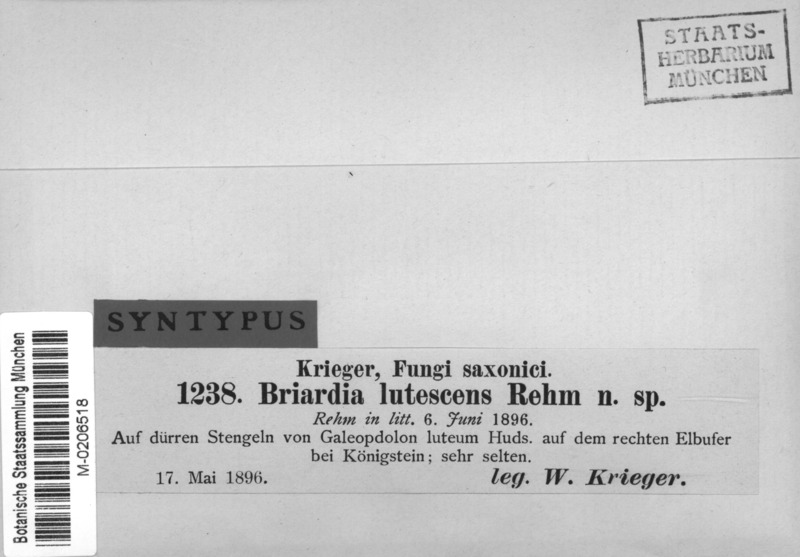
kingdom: Fungi
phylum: Ascomycota
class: Leotiomycetes
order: Helotiales
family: Dermateaceae
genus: Naevia
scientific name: Naevia lutescens
